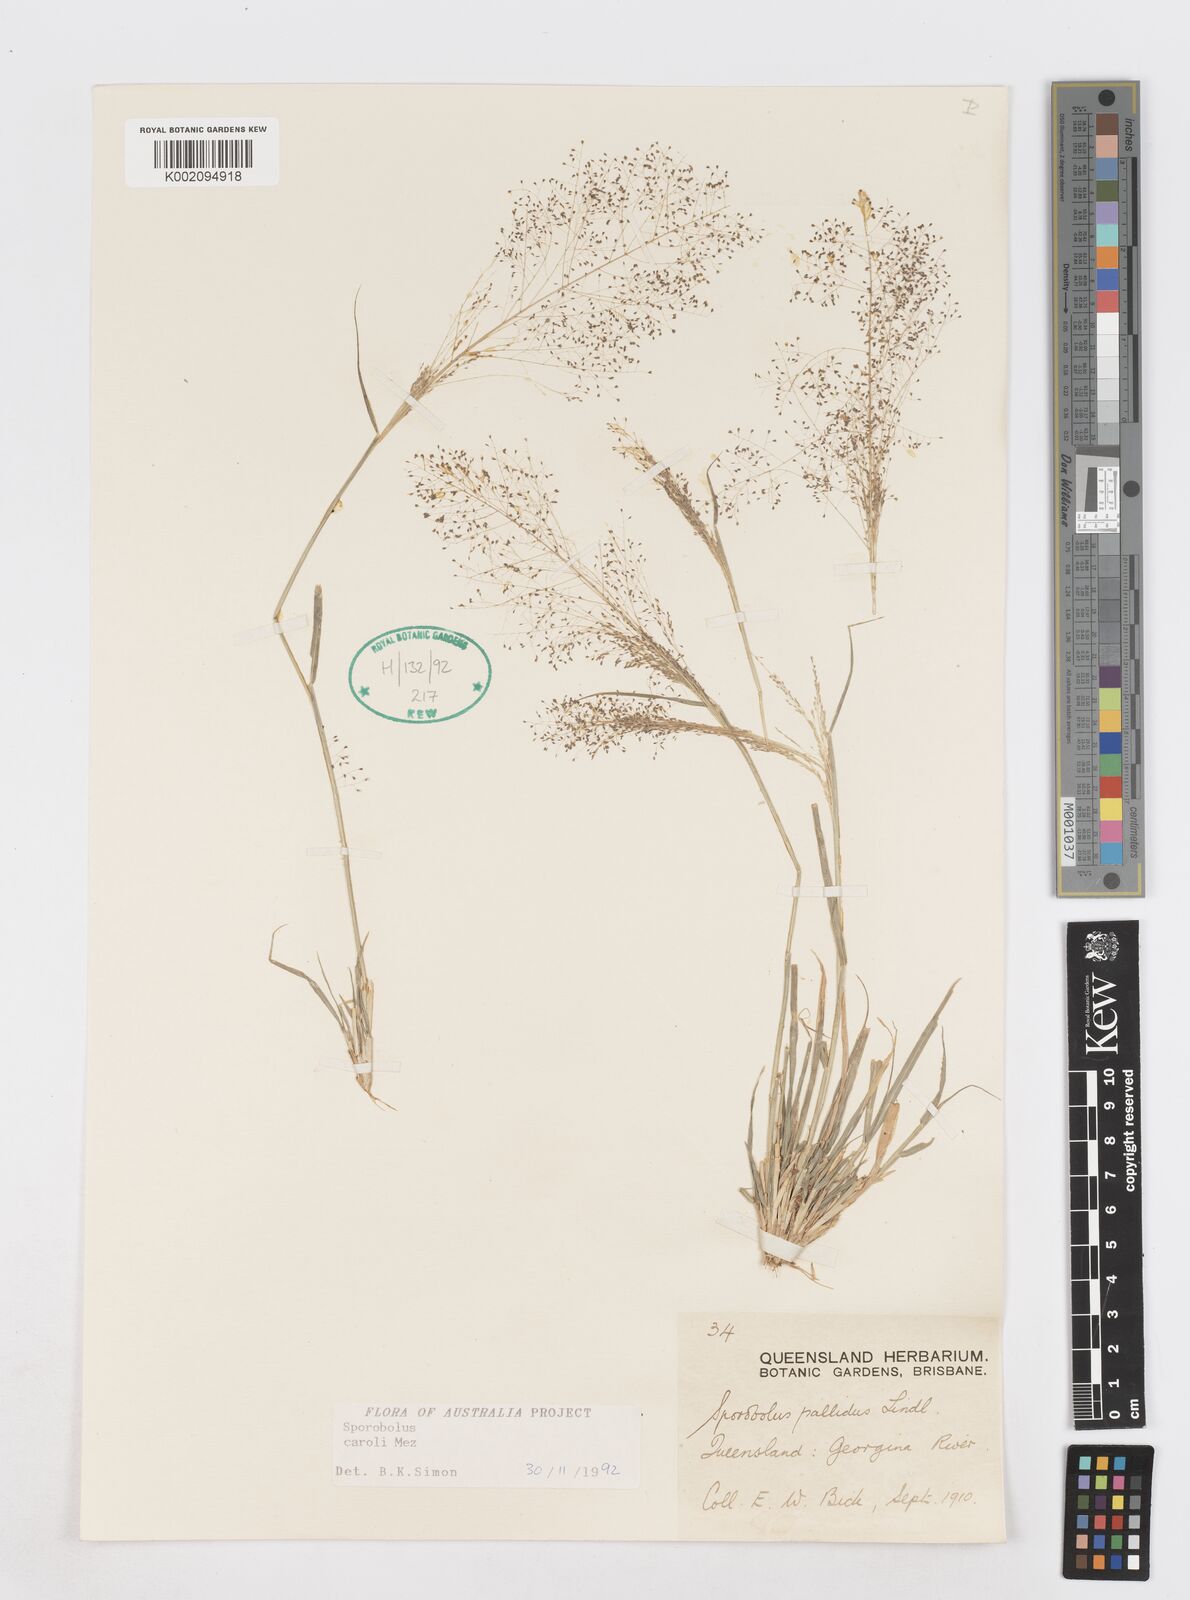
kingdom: Plantae
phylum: Tracheophyta
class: Liliopsida
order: Poales
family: Poaceae
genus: Sporobolus
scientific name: Sporobolus caroli
